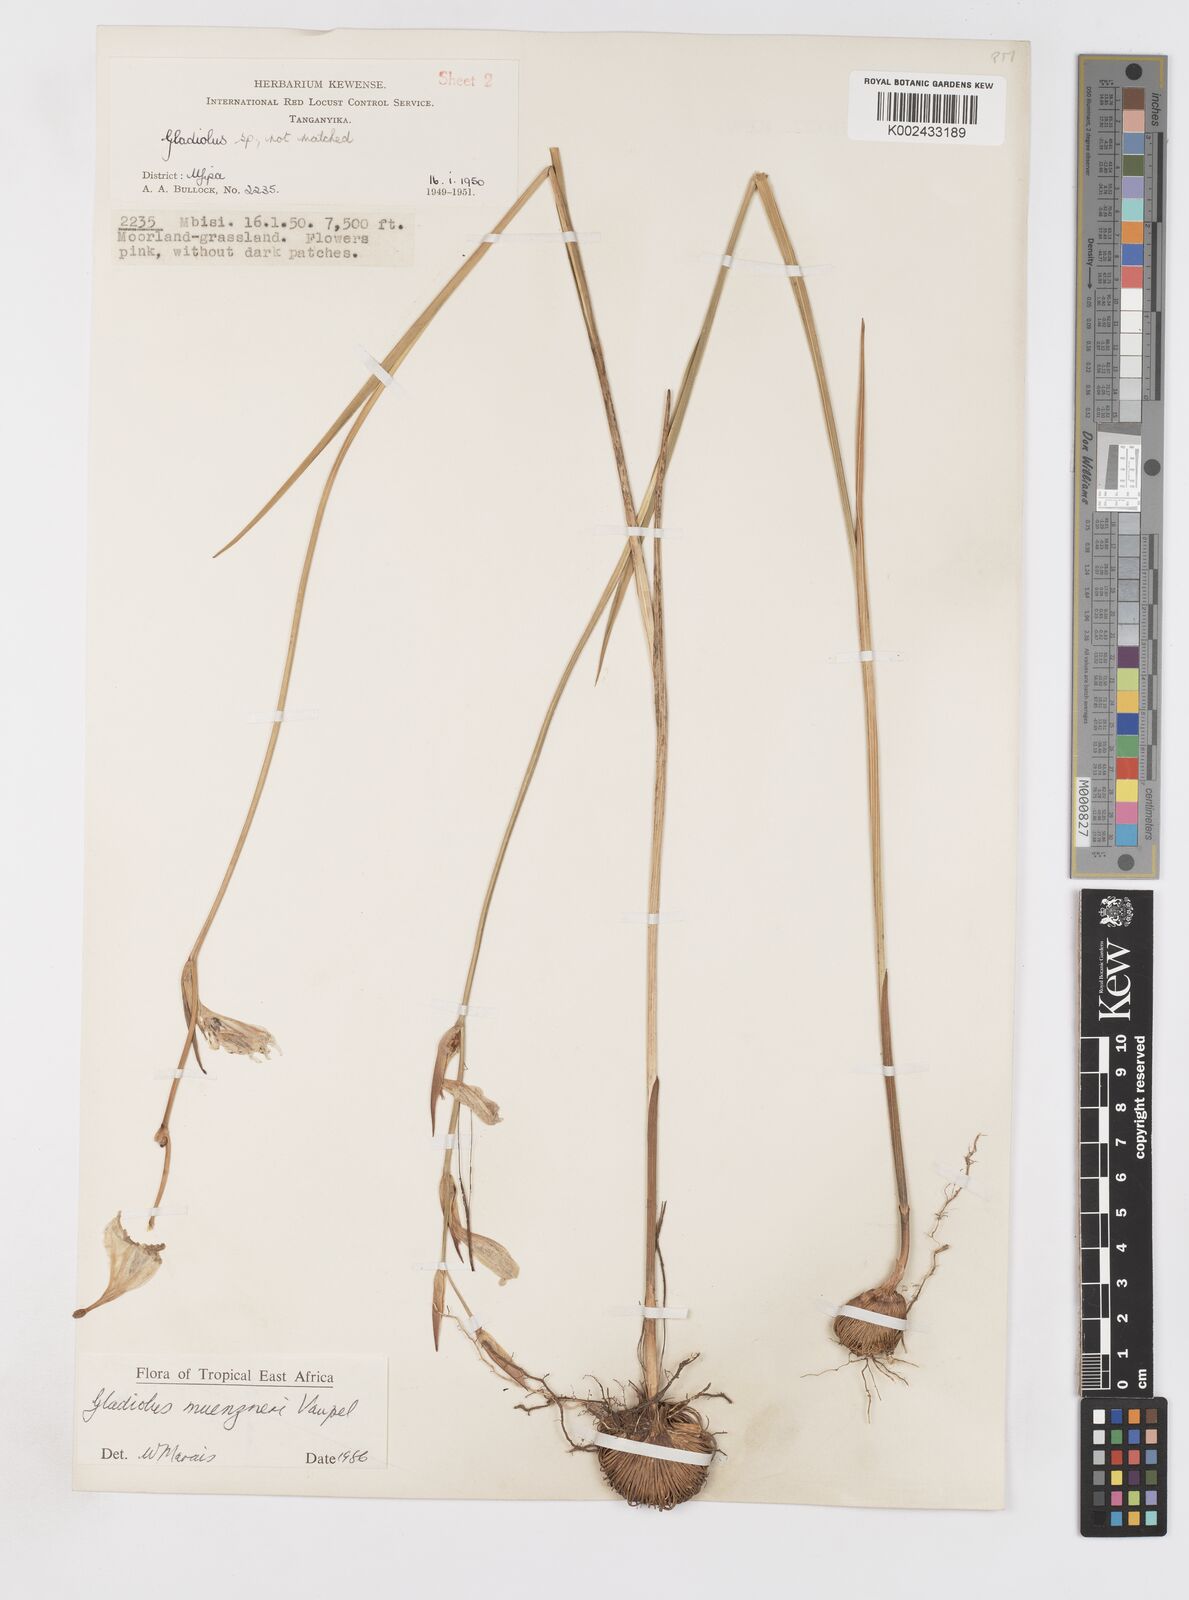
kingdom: Plantae
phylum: Tracheophyta
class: Liliopsida
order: Asparagales
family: Iridaceae
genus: Gladiolus
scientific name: Gladiolus muenzneri
